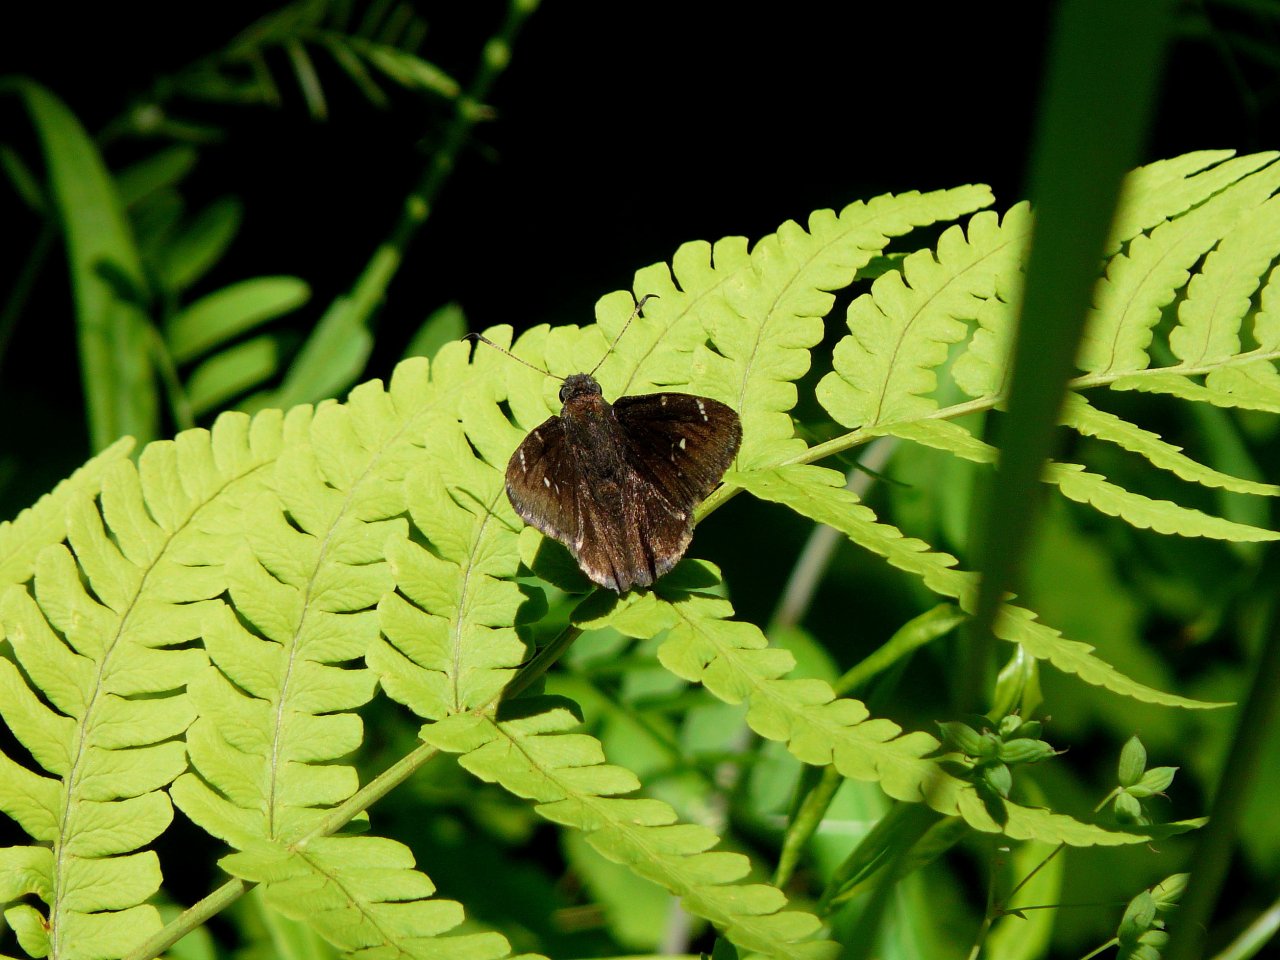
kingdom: Animalia
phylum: Arthropoda
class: Insecta
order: Lepidoptera
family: Hesperiidae
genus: Autochton
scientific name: Autochton
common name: Northern Cloudywing
